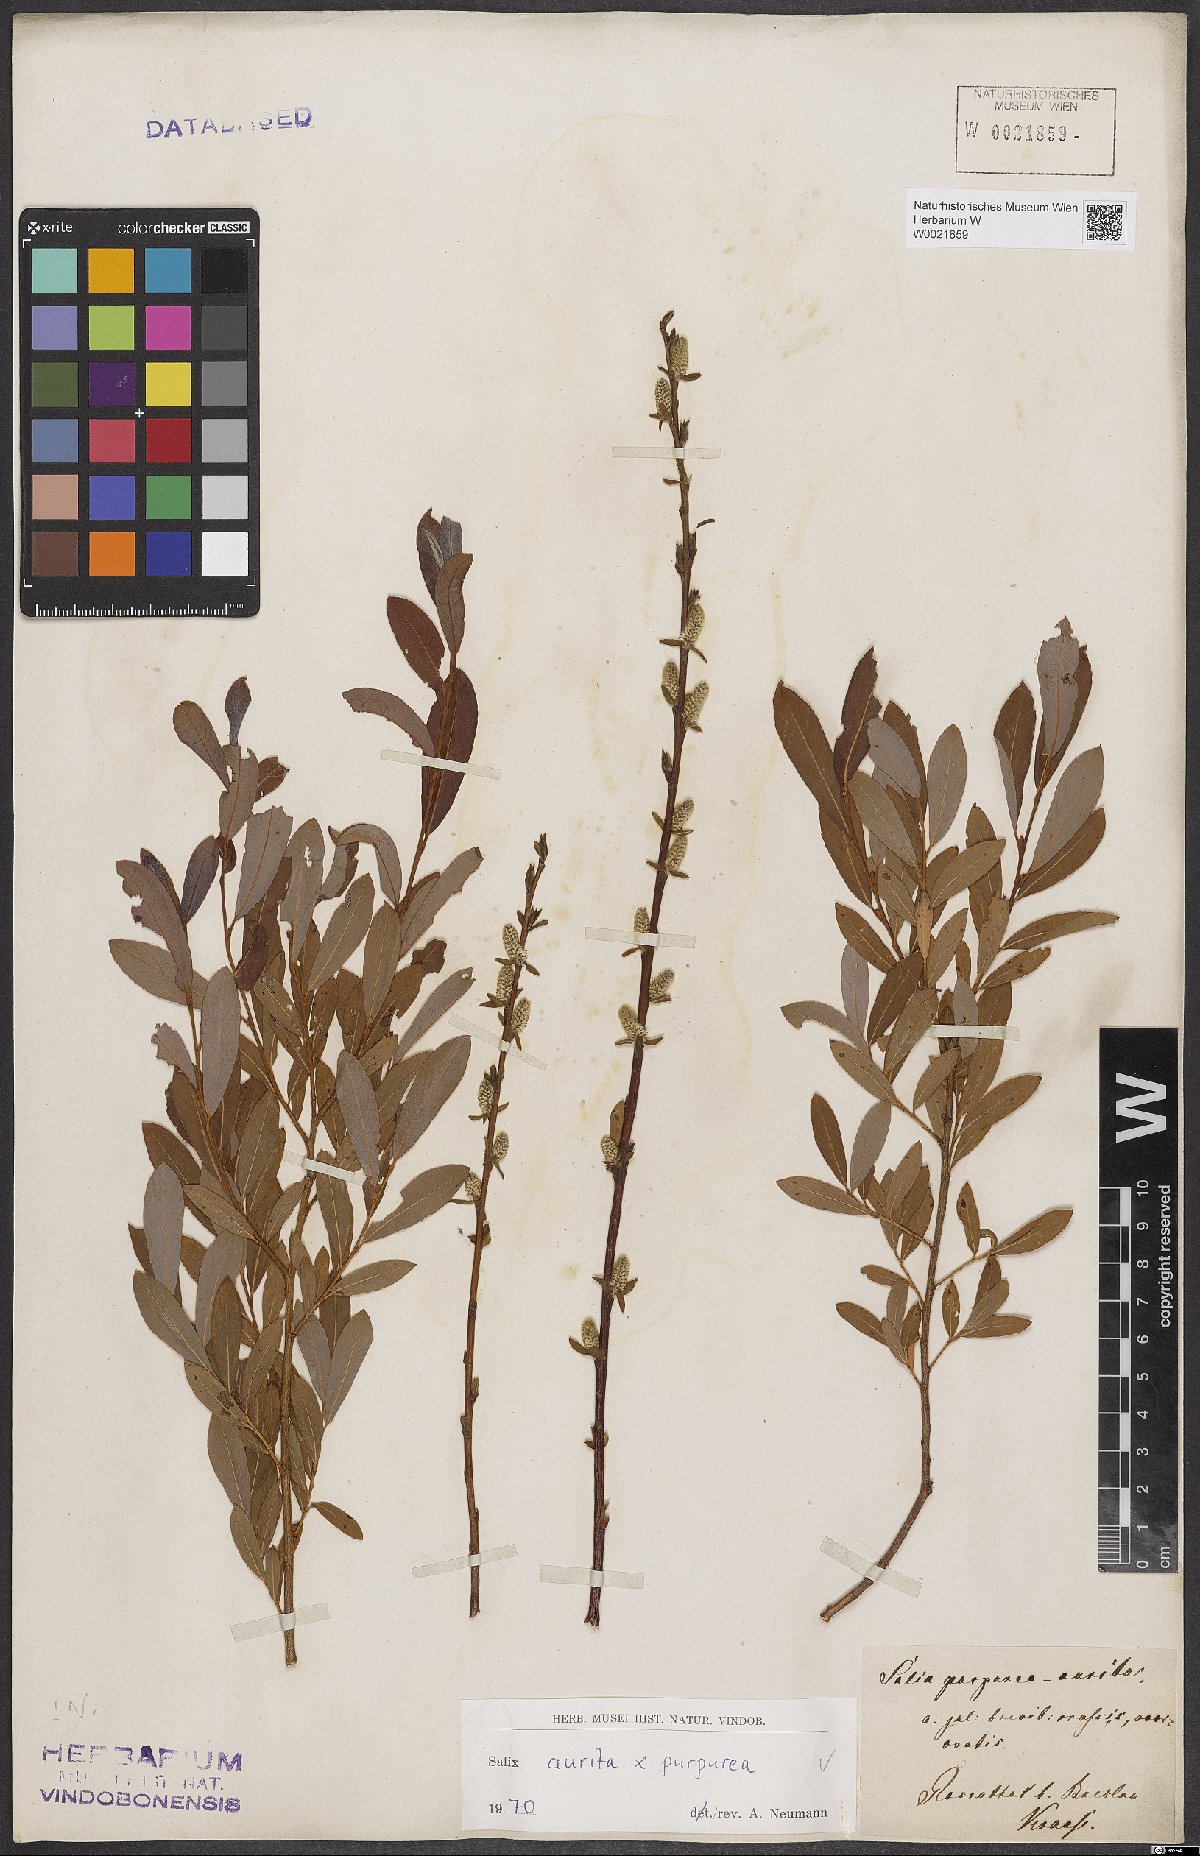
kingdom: Plantae
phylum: Tracheophyta
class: Magnoliopsida
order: Malpighiales
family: Salicaceae
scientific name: Salicaceae
